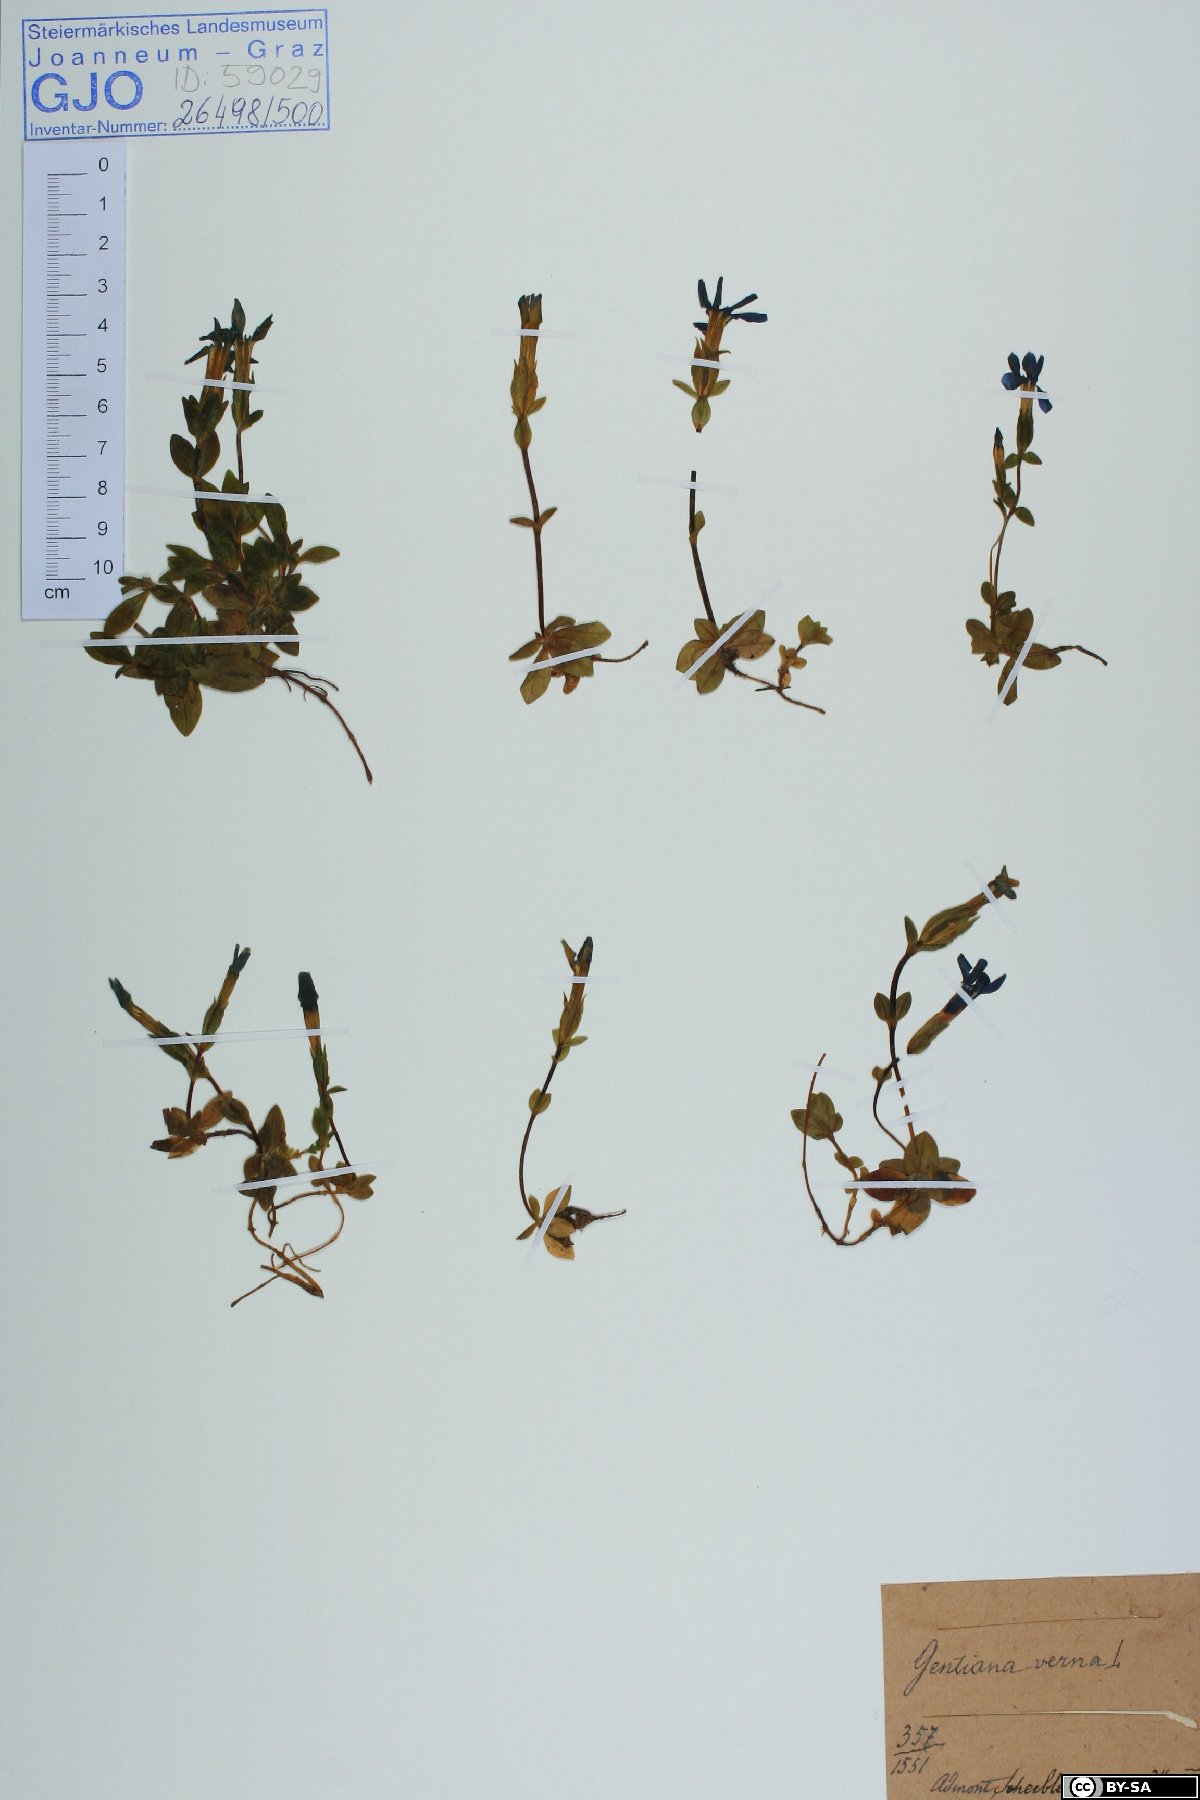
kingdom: Plantae
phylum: Tracheophyta
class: Magnoliopsida
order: Gentianales
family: Gentianaceae
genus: Gentiana
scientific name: Gentiana verna
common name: Spring gentian
